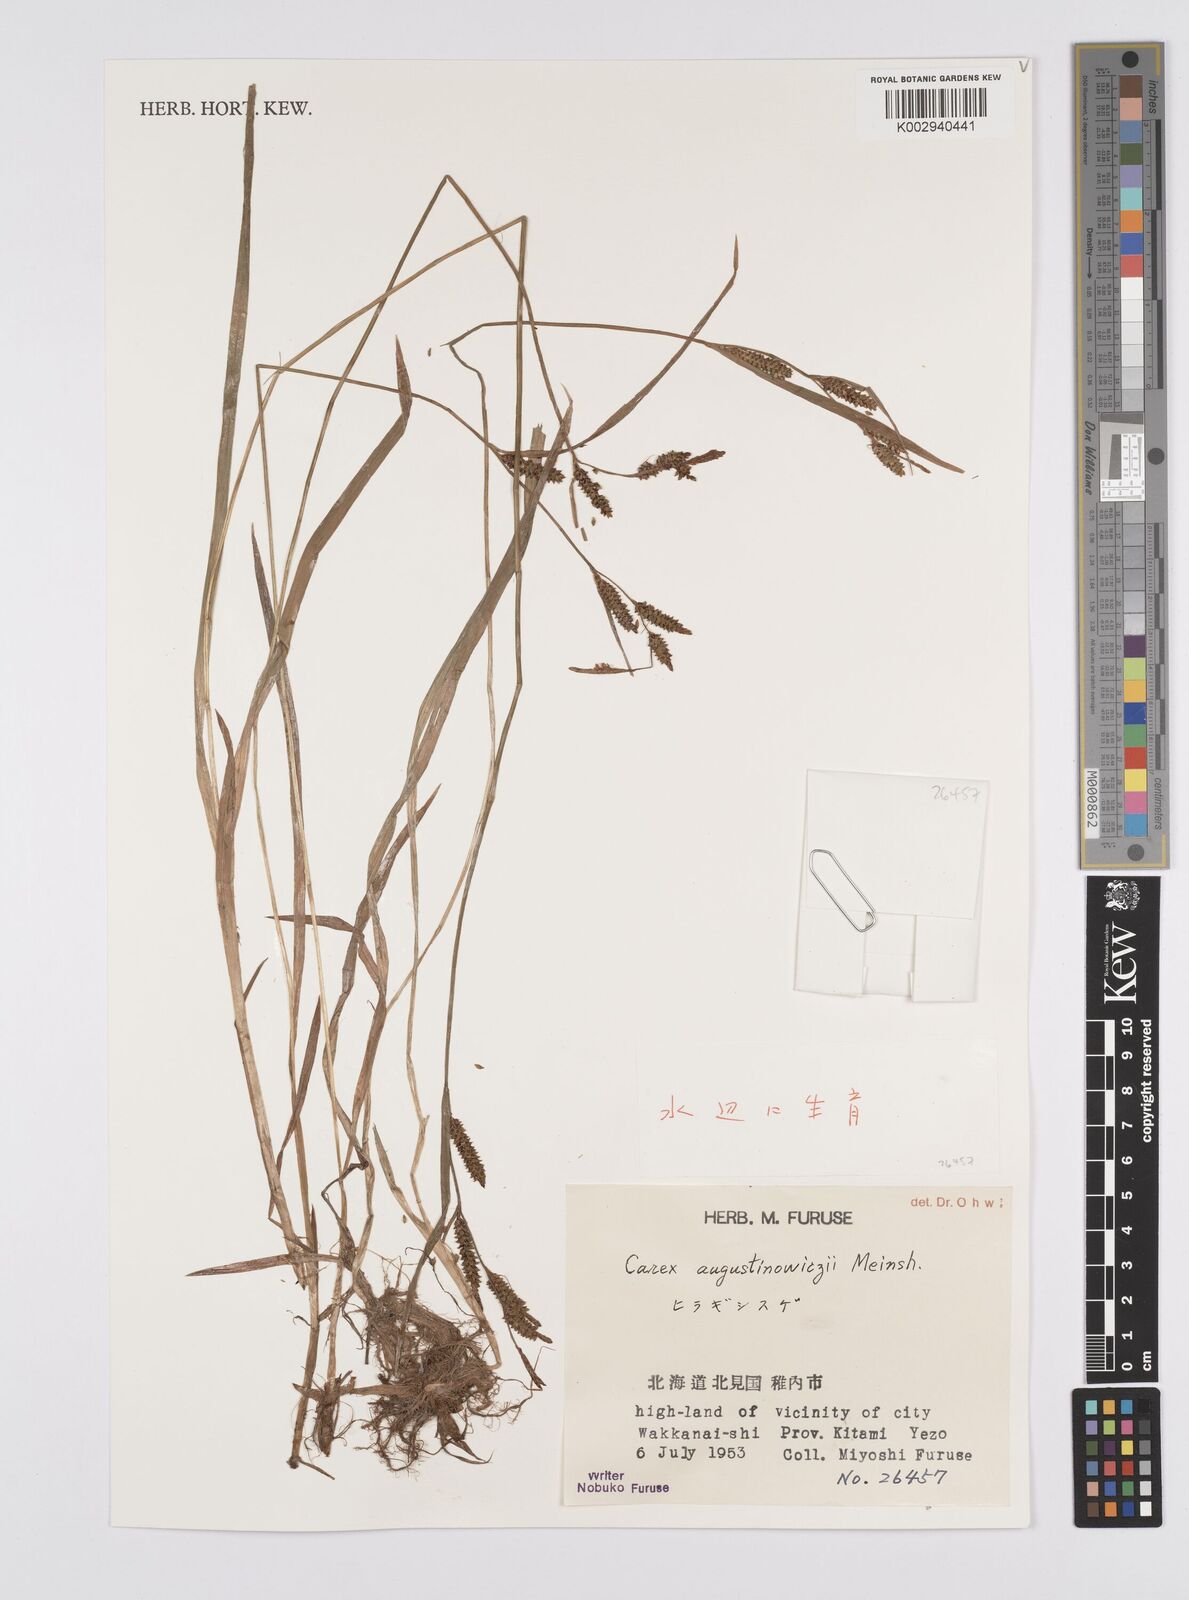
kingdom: Plantae
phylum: Tracheophyta
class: Liliopsida
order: Poales
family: Cyperaceae
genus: Carex
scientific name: Carex augustinowiczii
